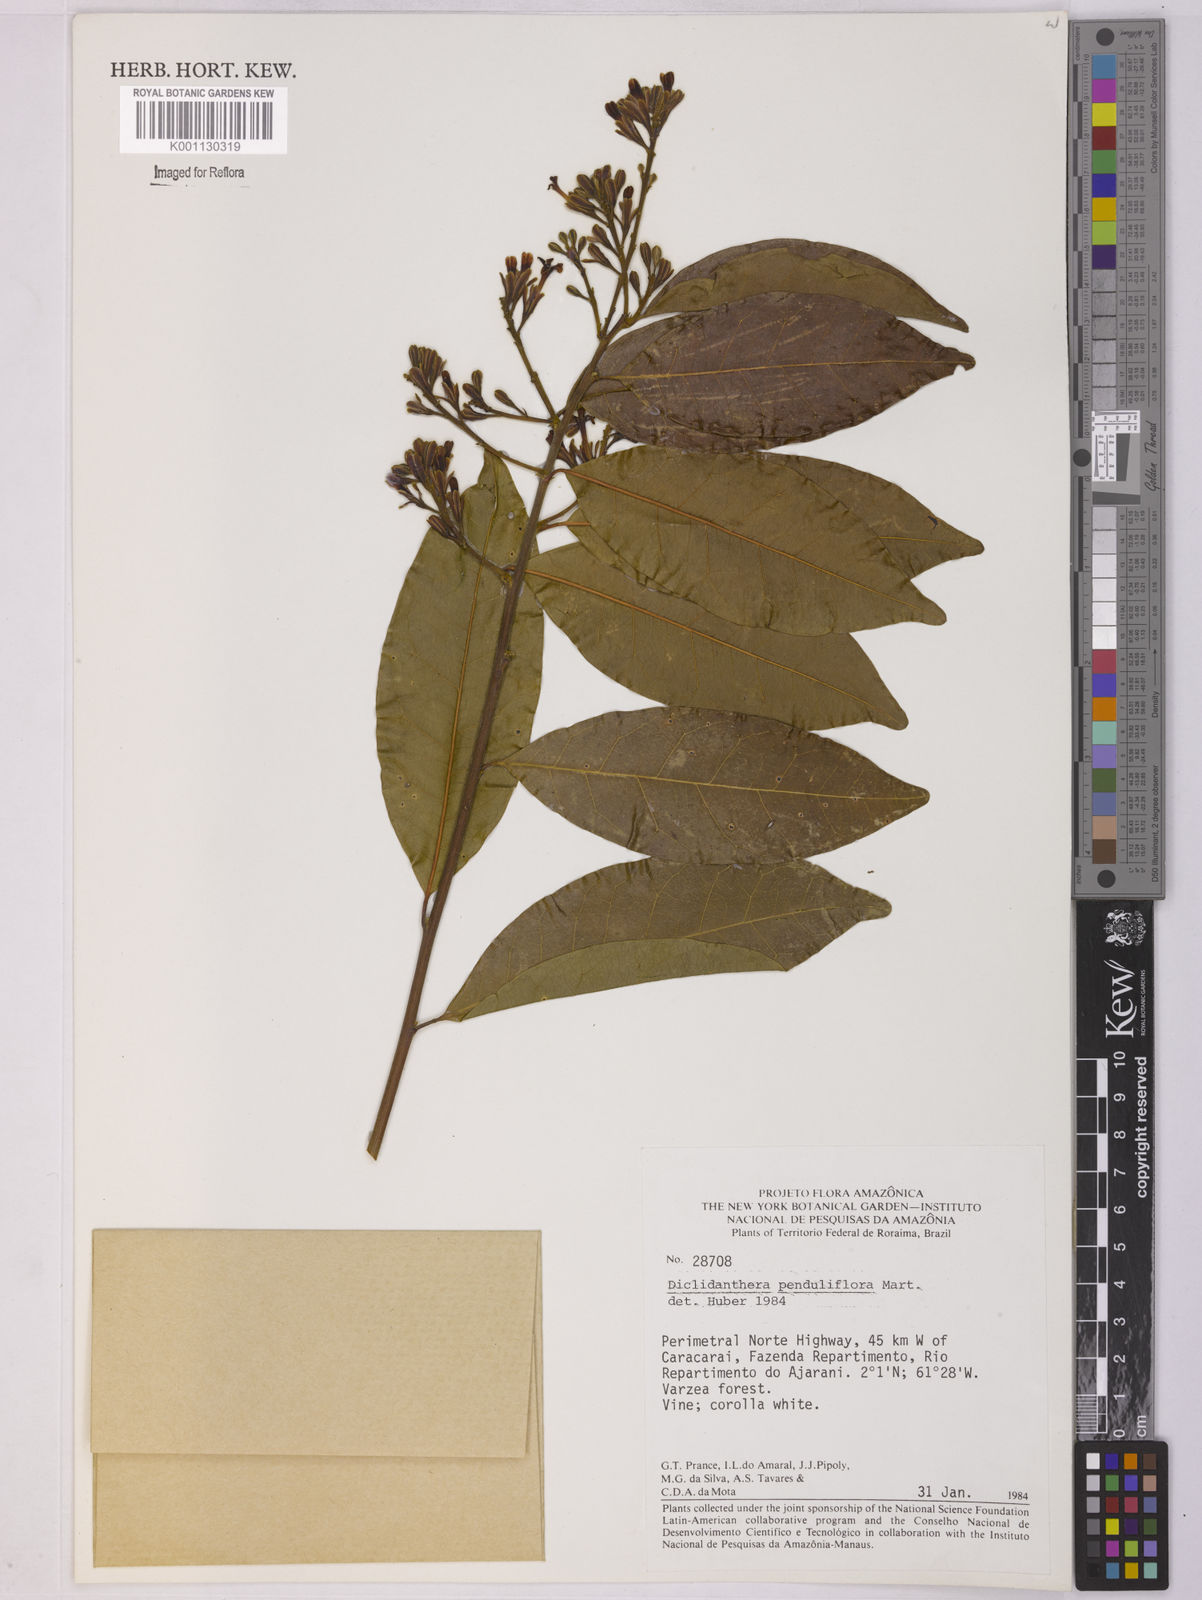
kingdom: Plantae
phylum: Tracheophyta
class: Magnoliopsida
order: Fabales
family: Polygalaceae
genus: Diclidanthera
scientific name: Diclidanthera penduliflora
